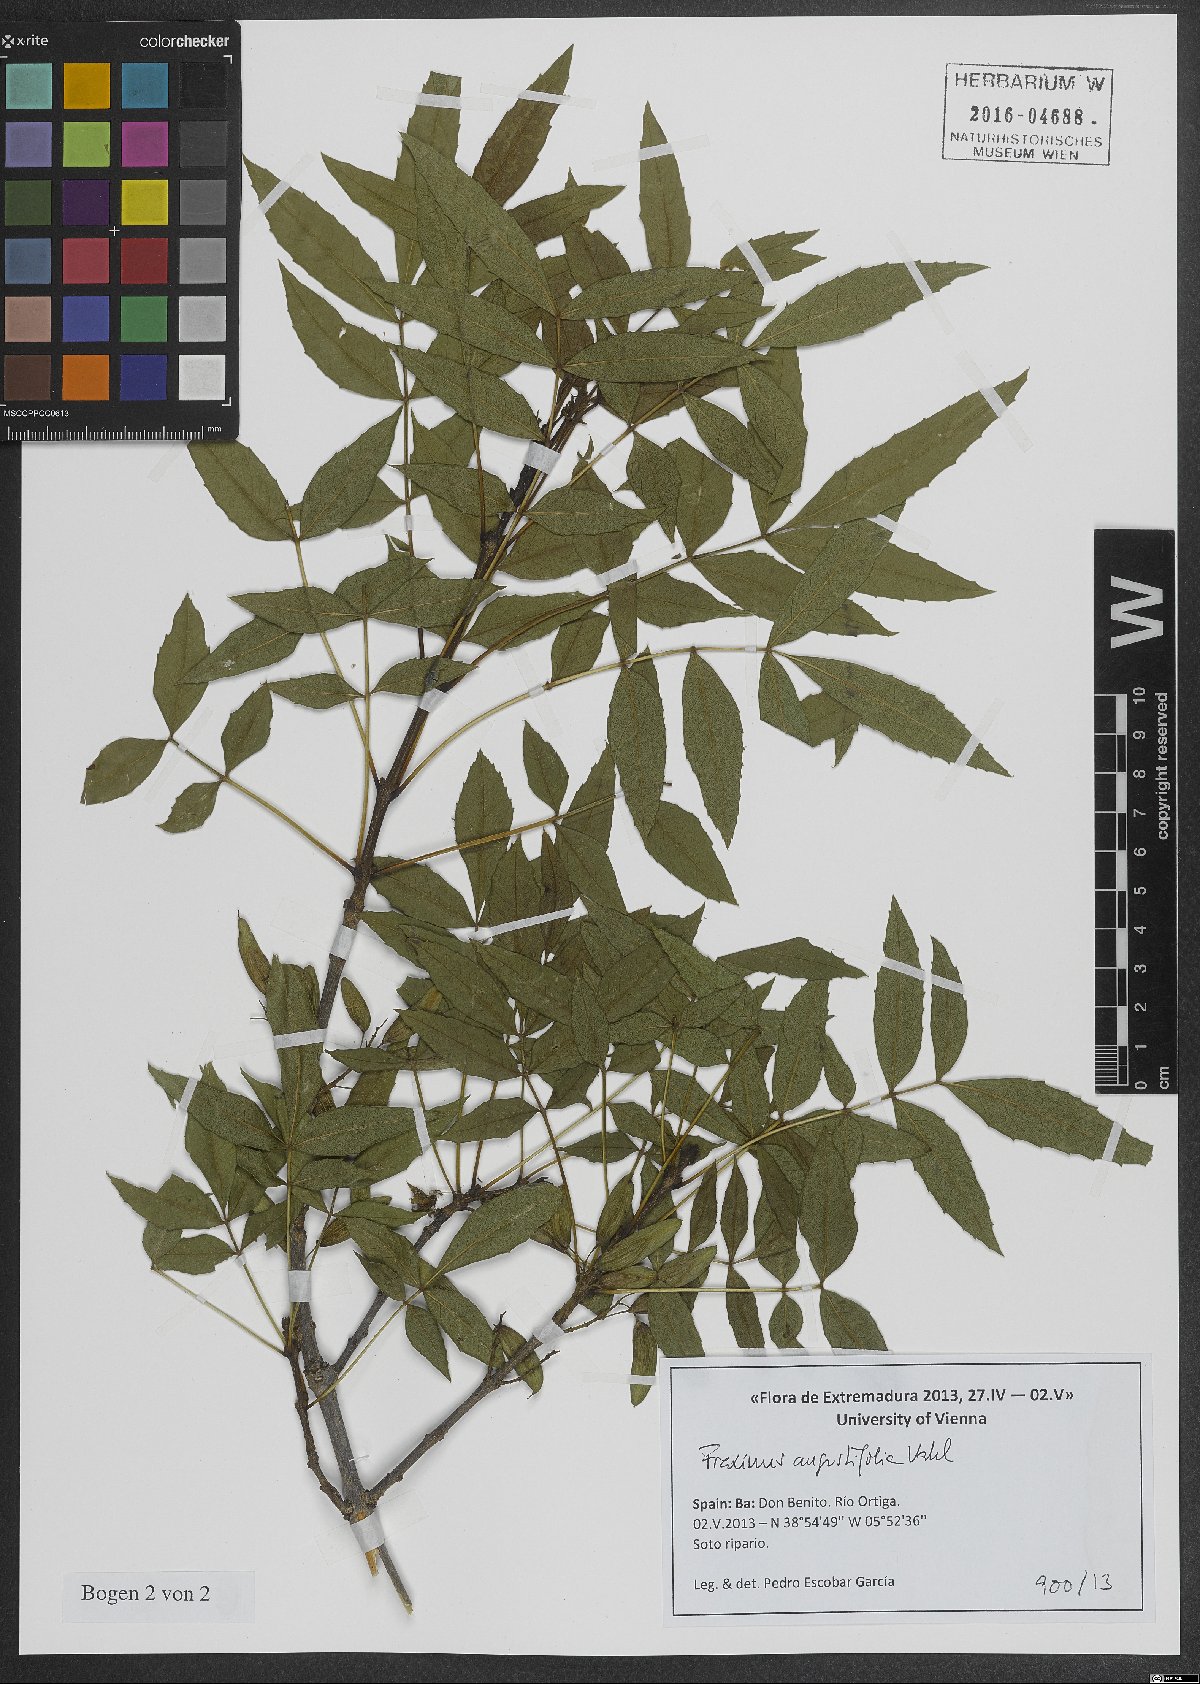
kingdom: Plantae
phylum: Tracheophyta
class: Magnoliopsida
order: Lamiales
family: Oleaceae
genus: Fraxinus
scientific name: Fraxinus angustifolia
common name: Narrow-leafed ash
